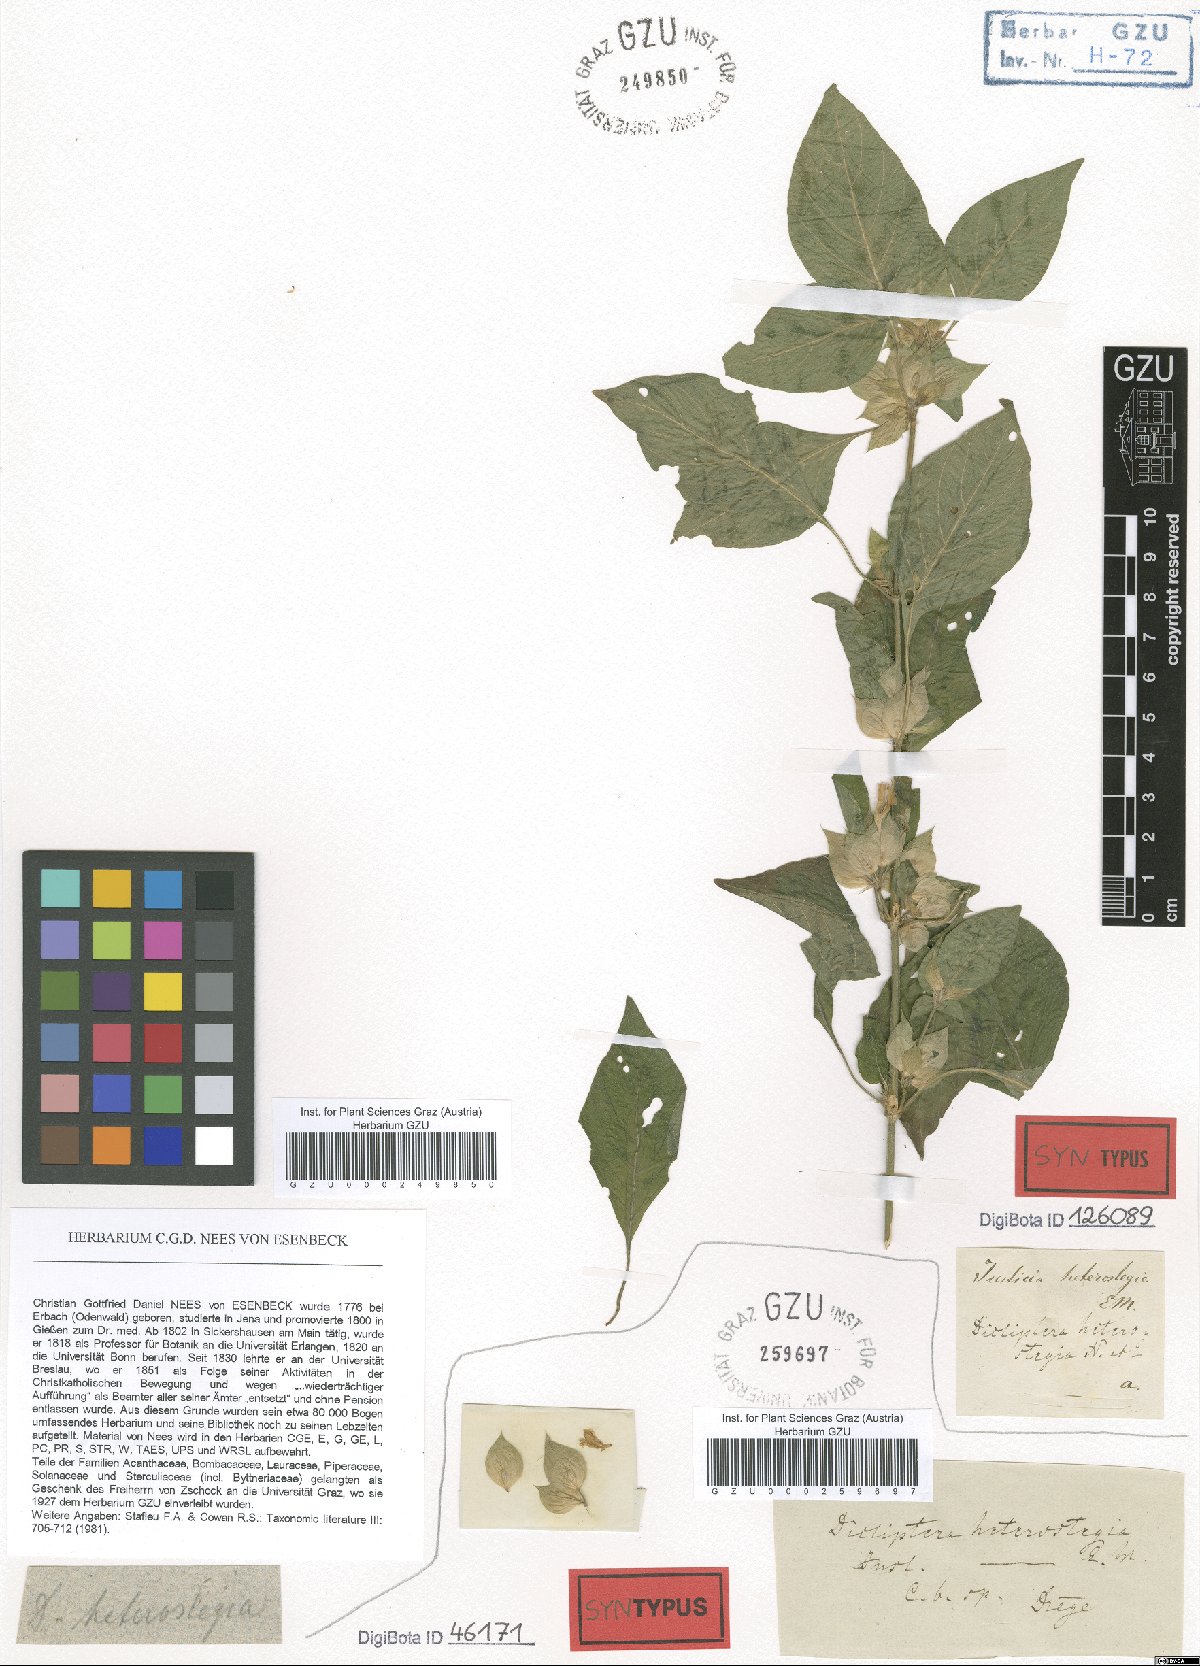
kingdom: Plantae
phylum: Tracheophyta
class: Magnoliopsida
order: Lamiales
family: Acanthaceae
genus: Dicliptera
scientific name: Dicliptera heterostegia
